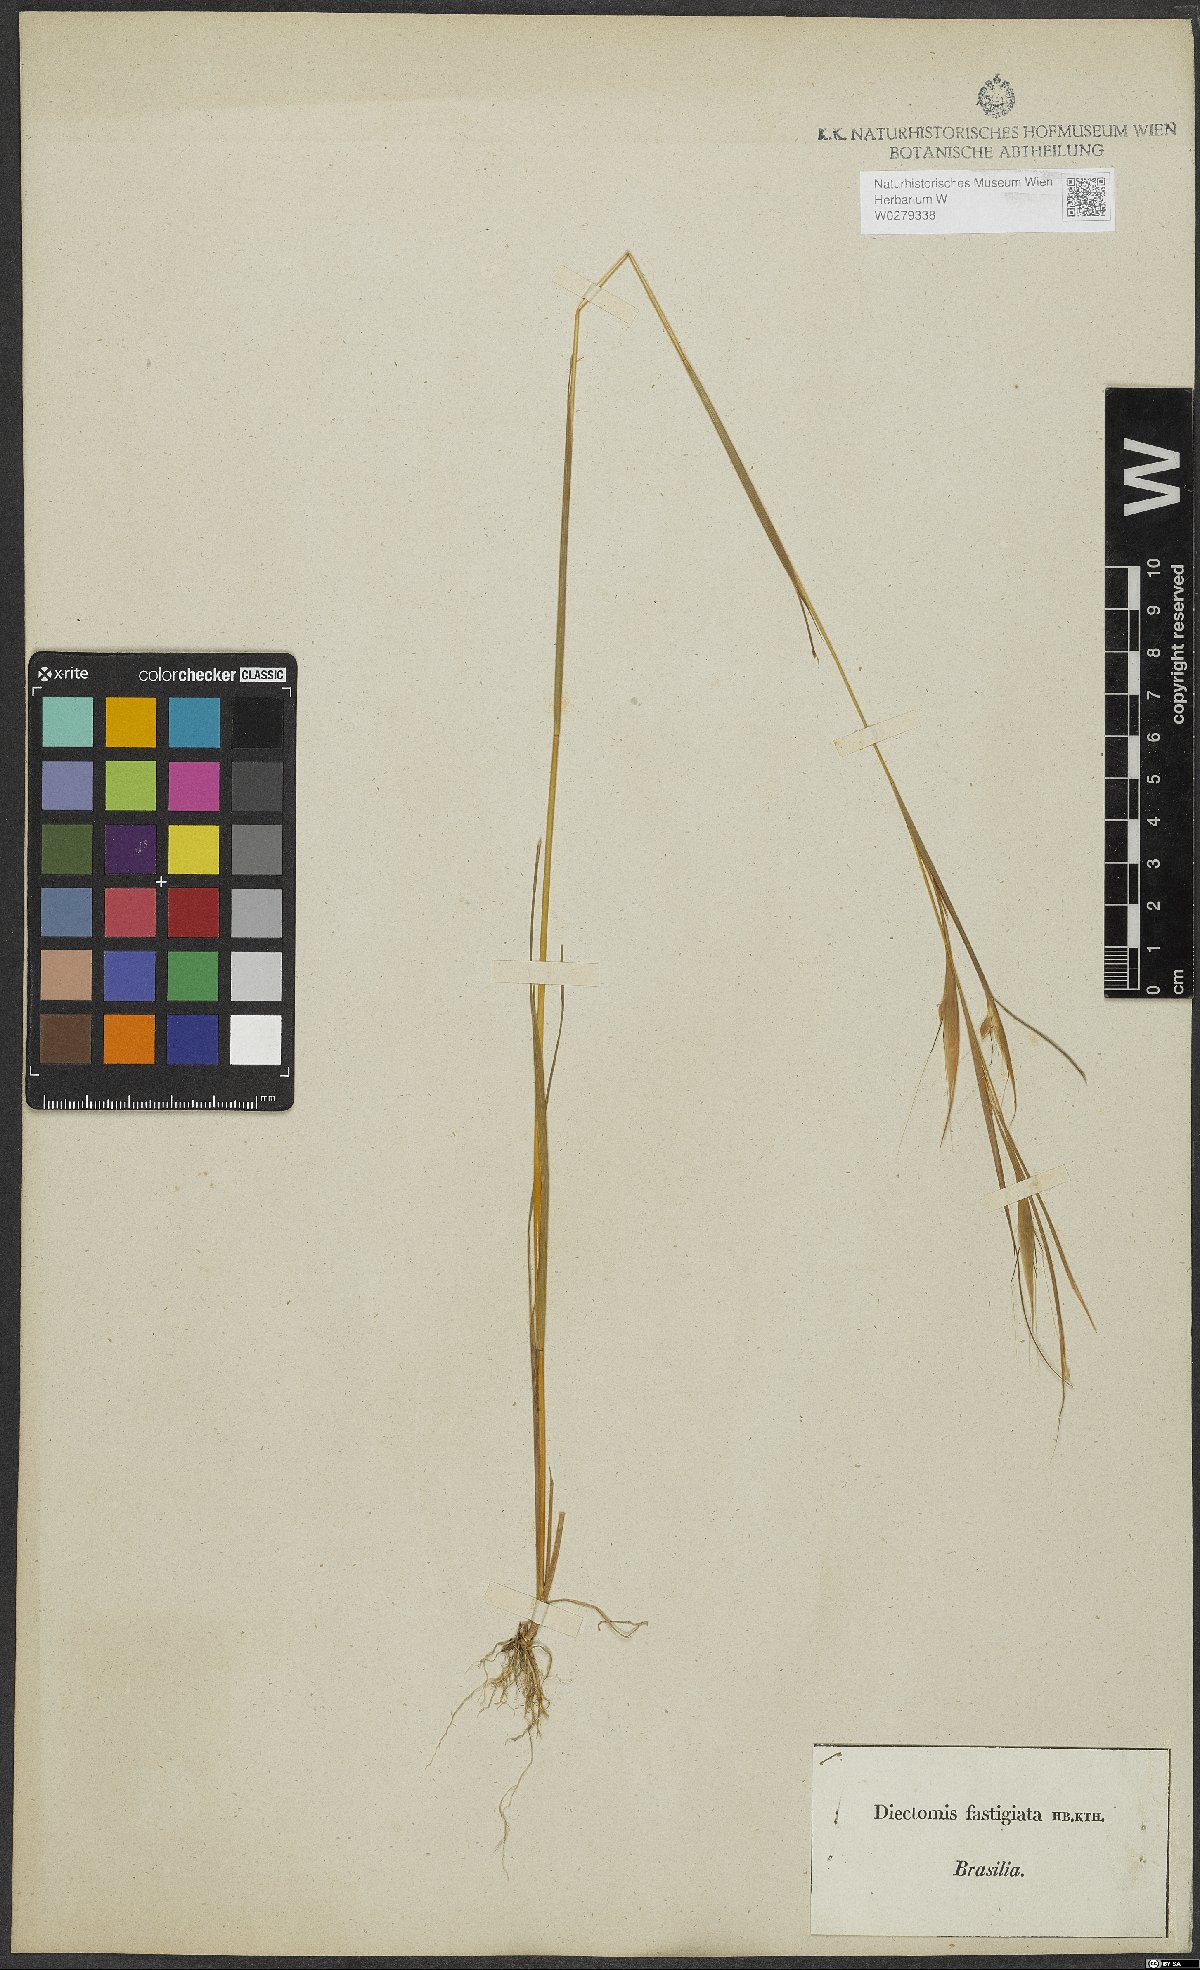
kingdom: Plantae
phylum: Tracheophyta
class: Liliopsida
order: Poales
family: Poaceae
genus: Diectomis
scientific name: Diectomis fastigiata
